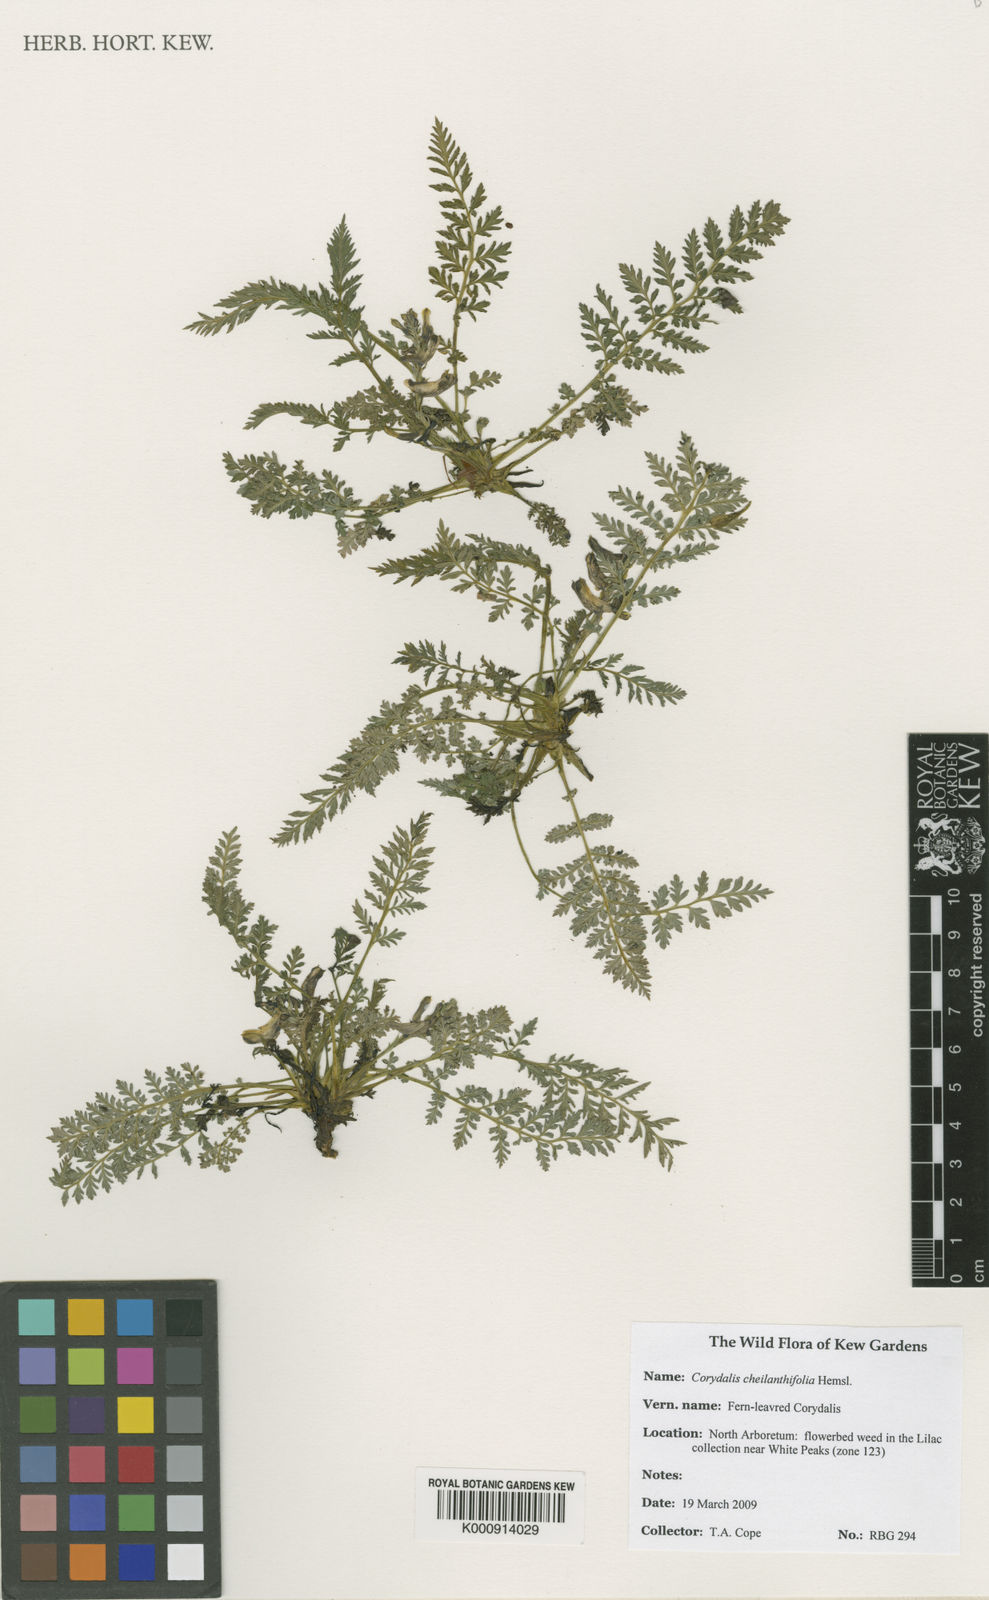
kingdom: Plantae
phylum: Tracheophyta
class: Magnoliopsida
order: Ranunculales
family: Papaveraceae
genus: Corydalis
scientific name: Corydalis cheilanthifolia
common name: Fern-leaved corydalis
